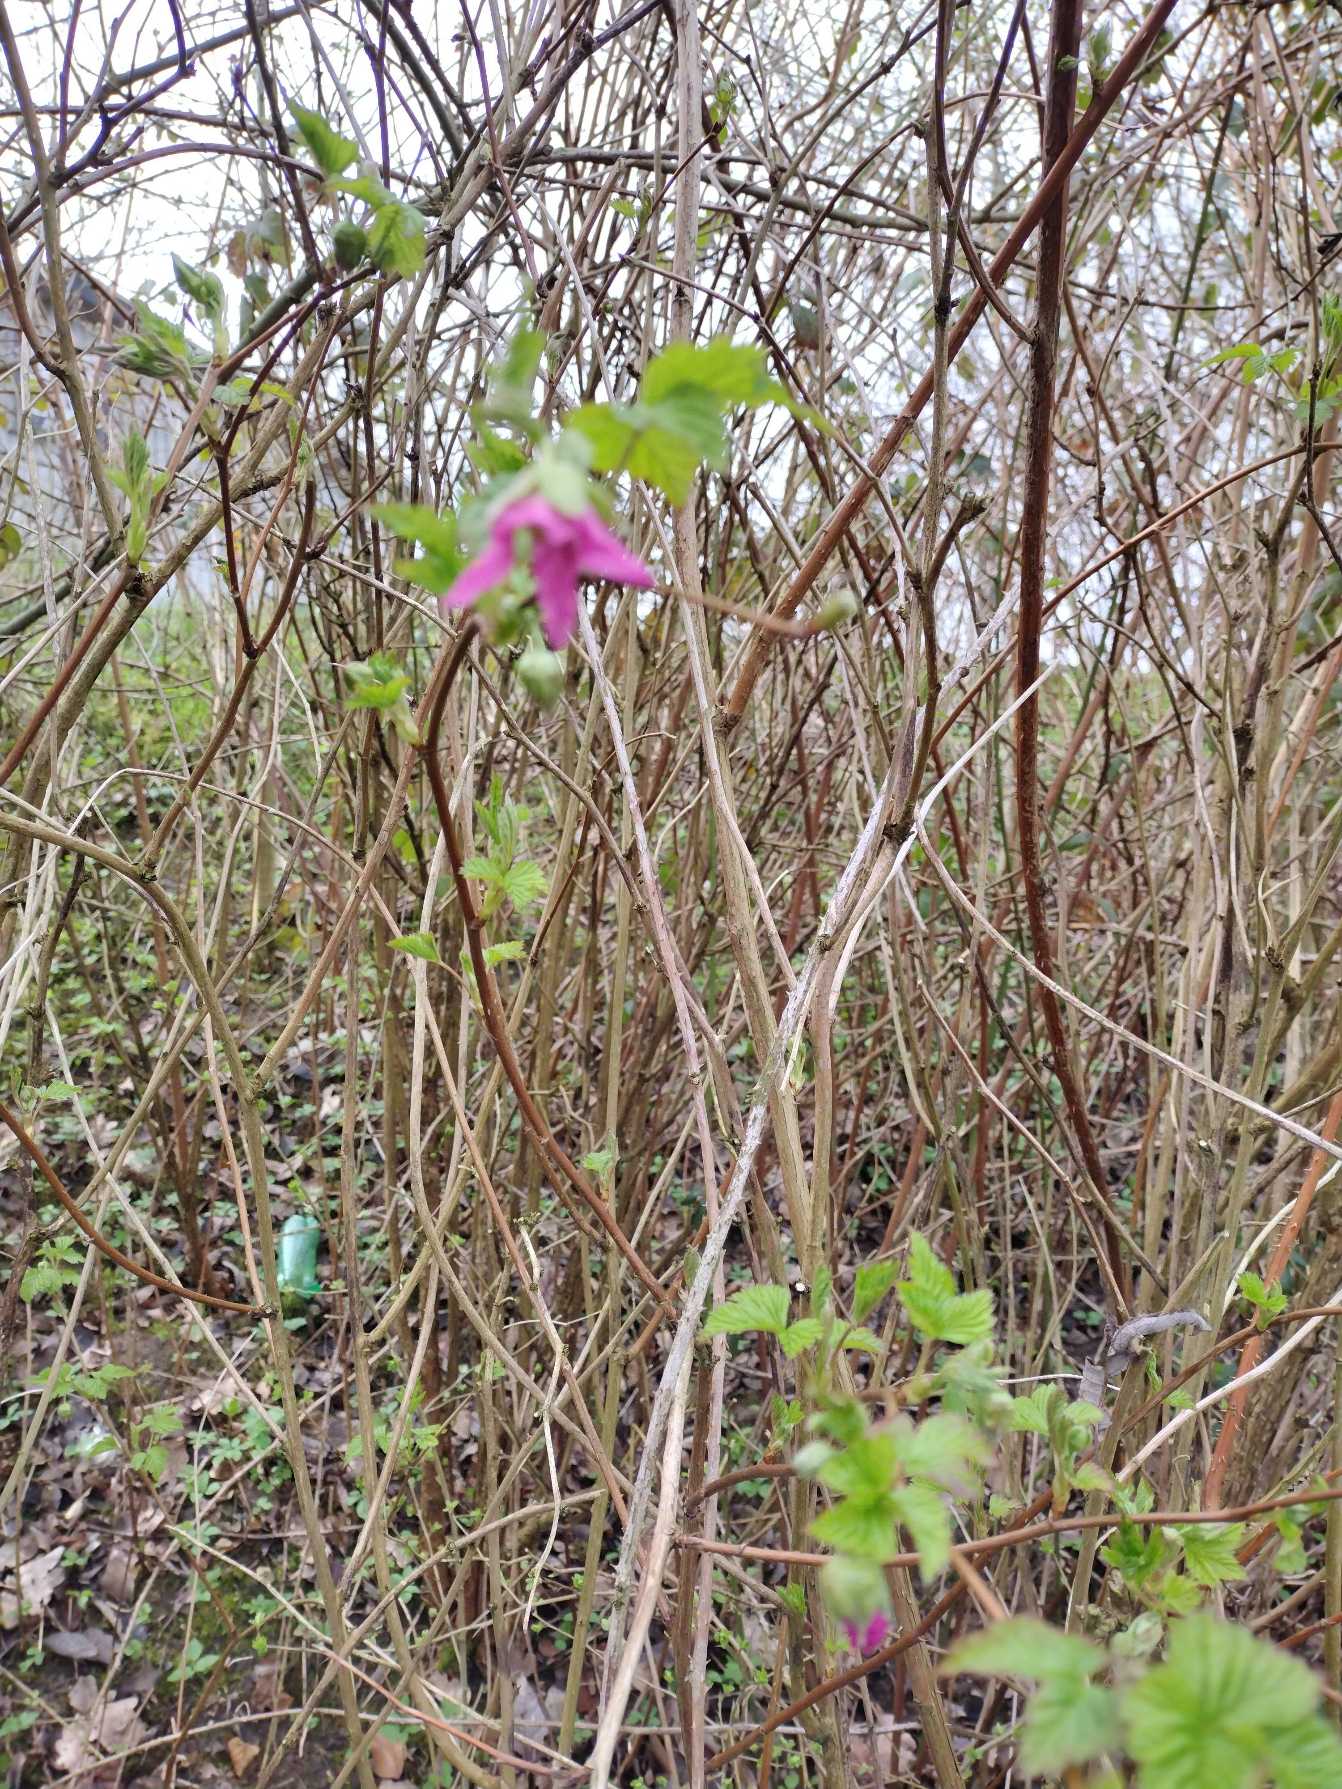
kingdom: Plantae
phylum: Tracheophyta
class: Magnoliopsida
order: Rosales
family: Rosaceae
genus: Rubus
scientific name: Rubus spectabilis
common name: Laksebær
